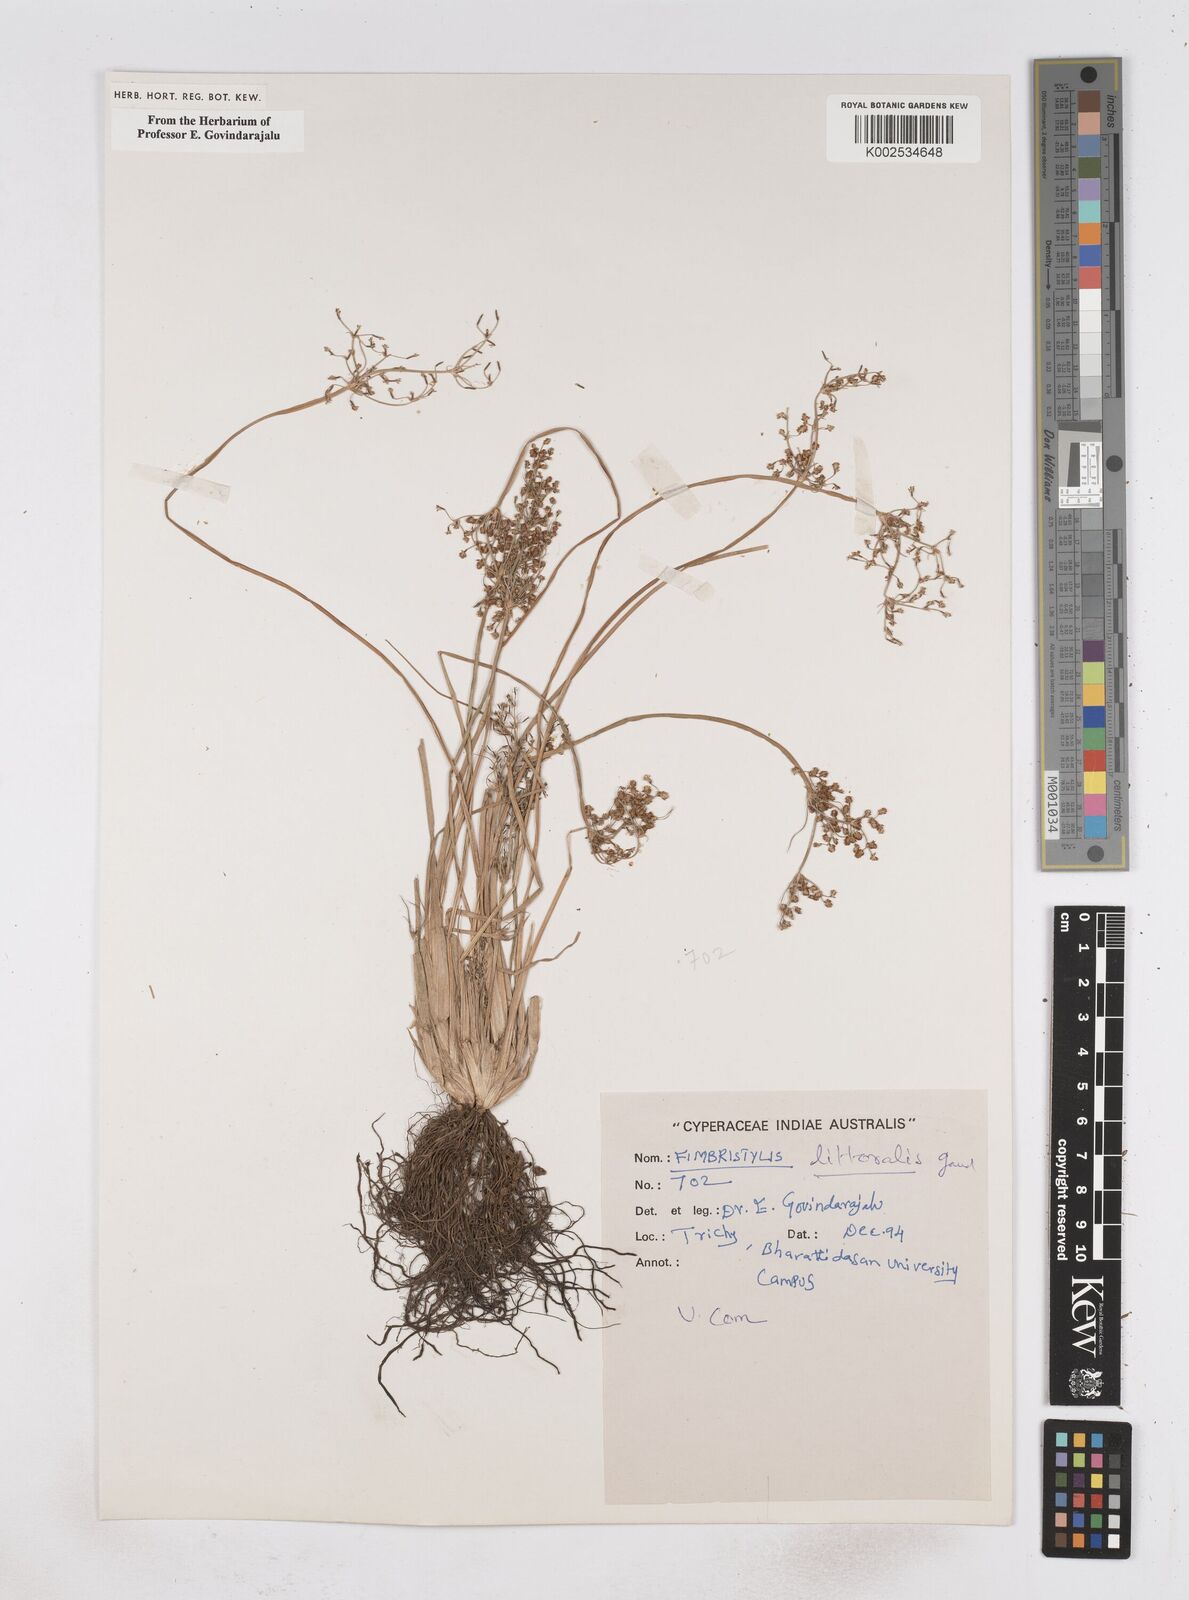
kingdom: Plantae
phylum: Tracheophyta
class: Liliopsida
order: Poales
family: Cyperaceae
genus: Fimbristylis
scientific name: Fimbristylis littoralis
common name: Fimbry
